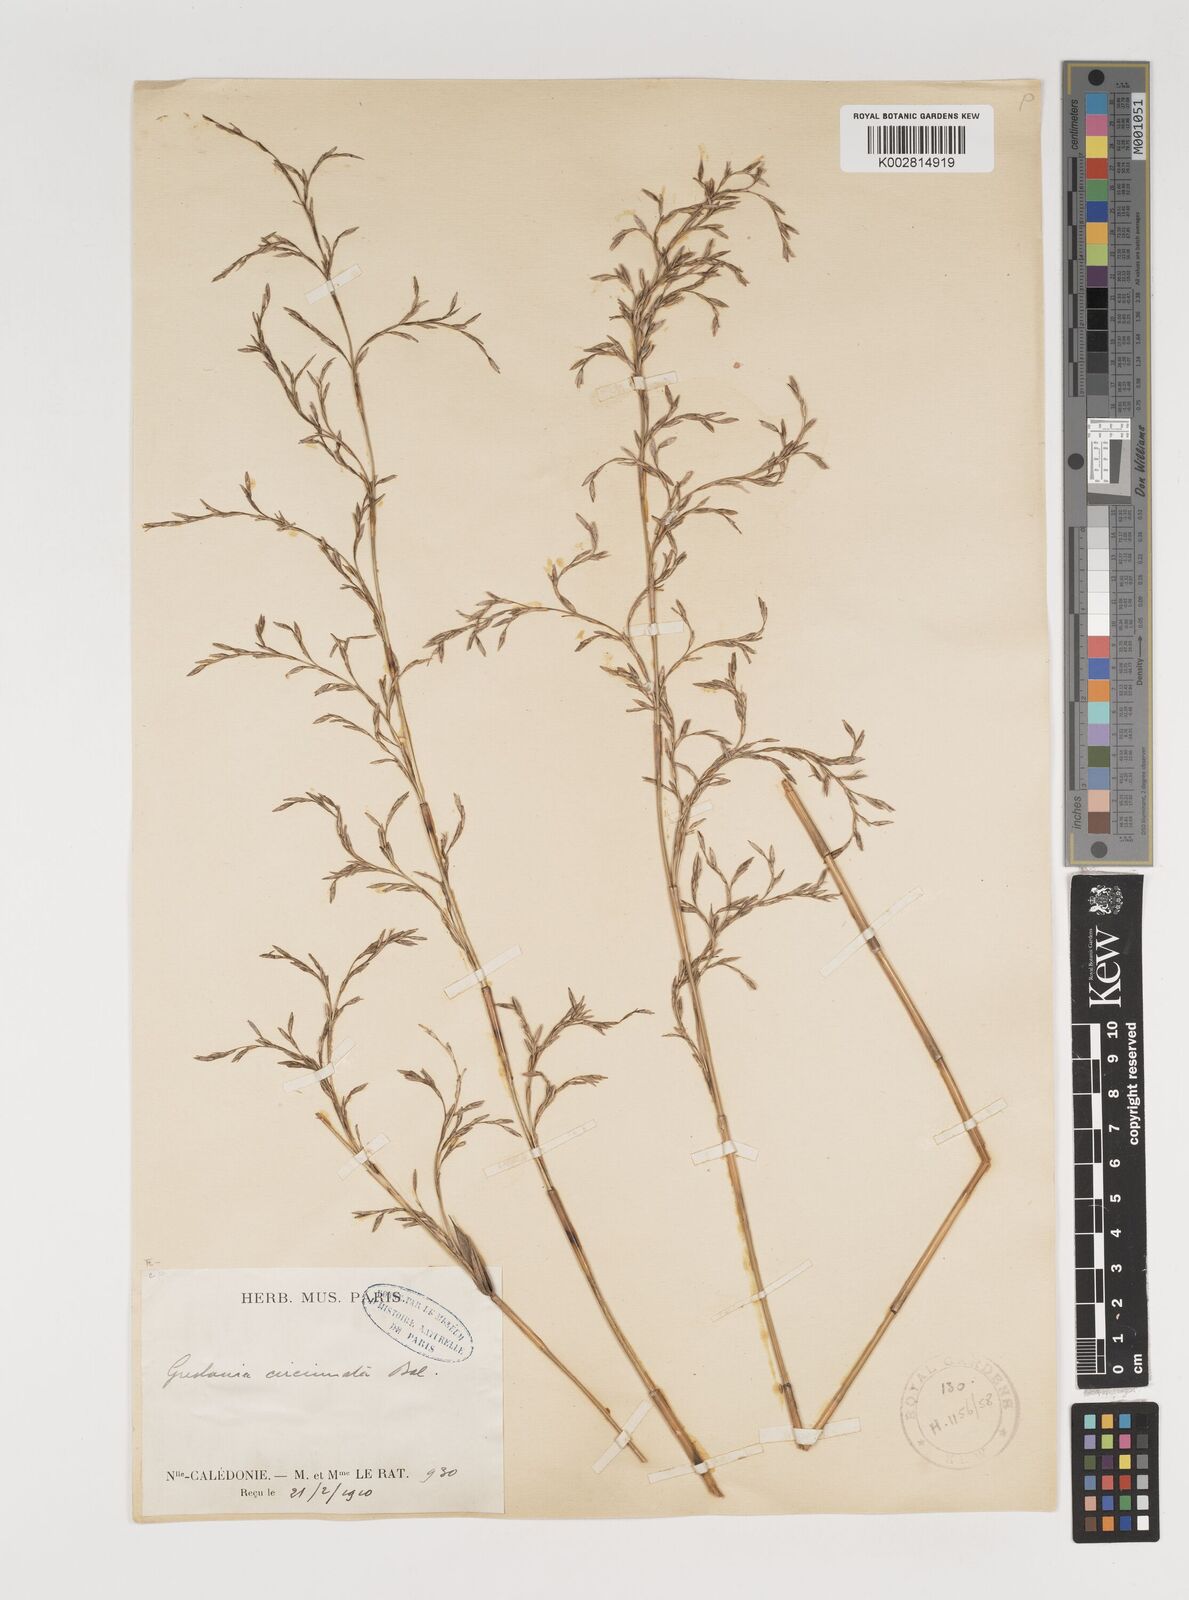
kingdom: Plantae
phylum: Tracheophyta
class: Liliopsida
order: Poales
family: Poaceae
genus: Greslania
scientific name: Greslania circinata
